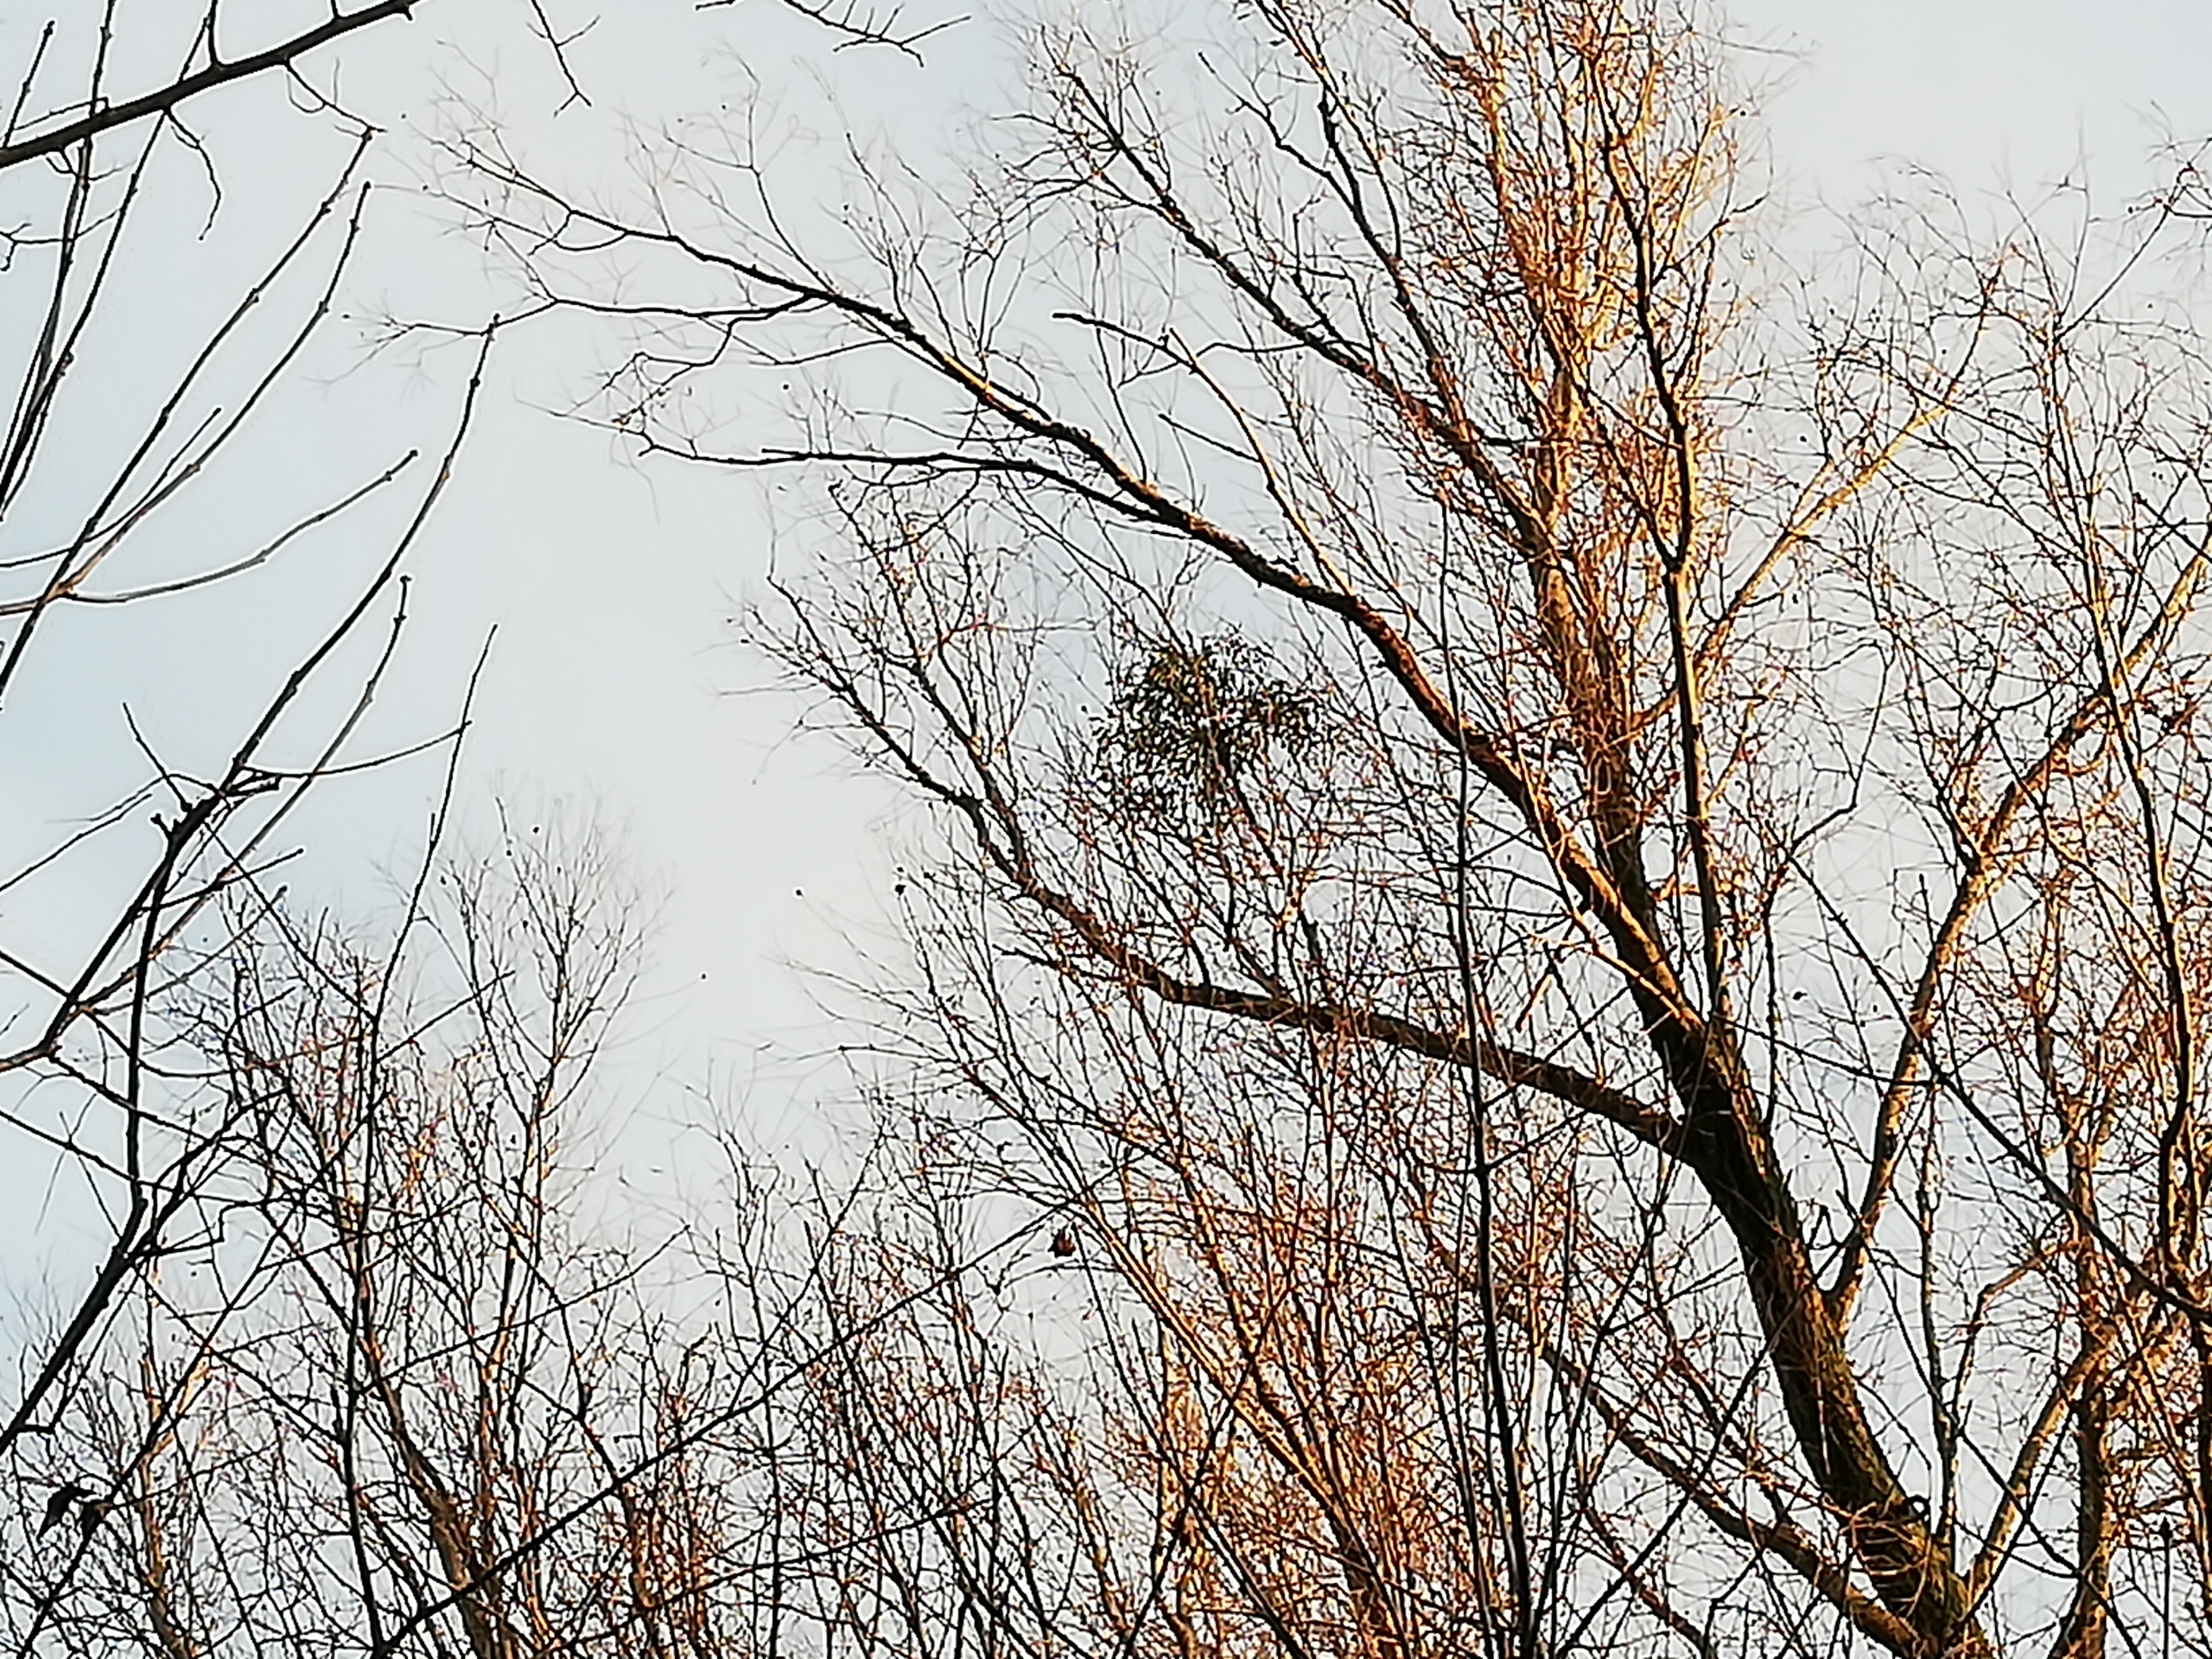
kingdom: Plantae
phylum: Tracheophyta
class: Magnoliopsida
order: Santalales
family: Viscaceae
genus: Viscum
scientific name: Viscum album
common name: Mistelten
